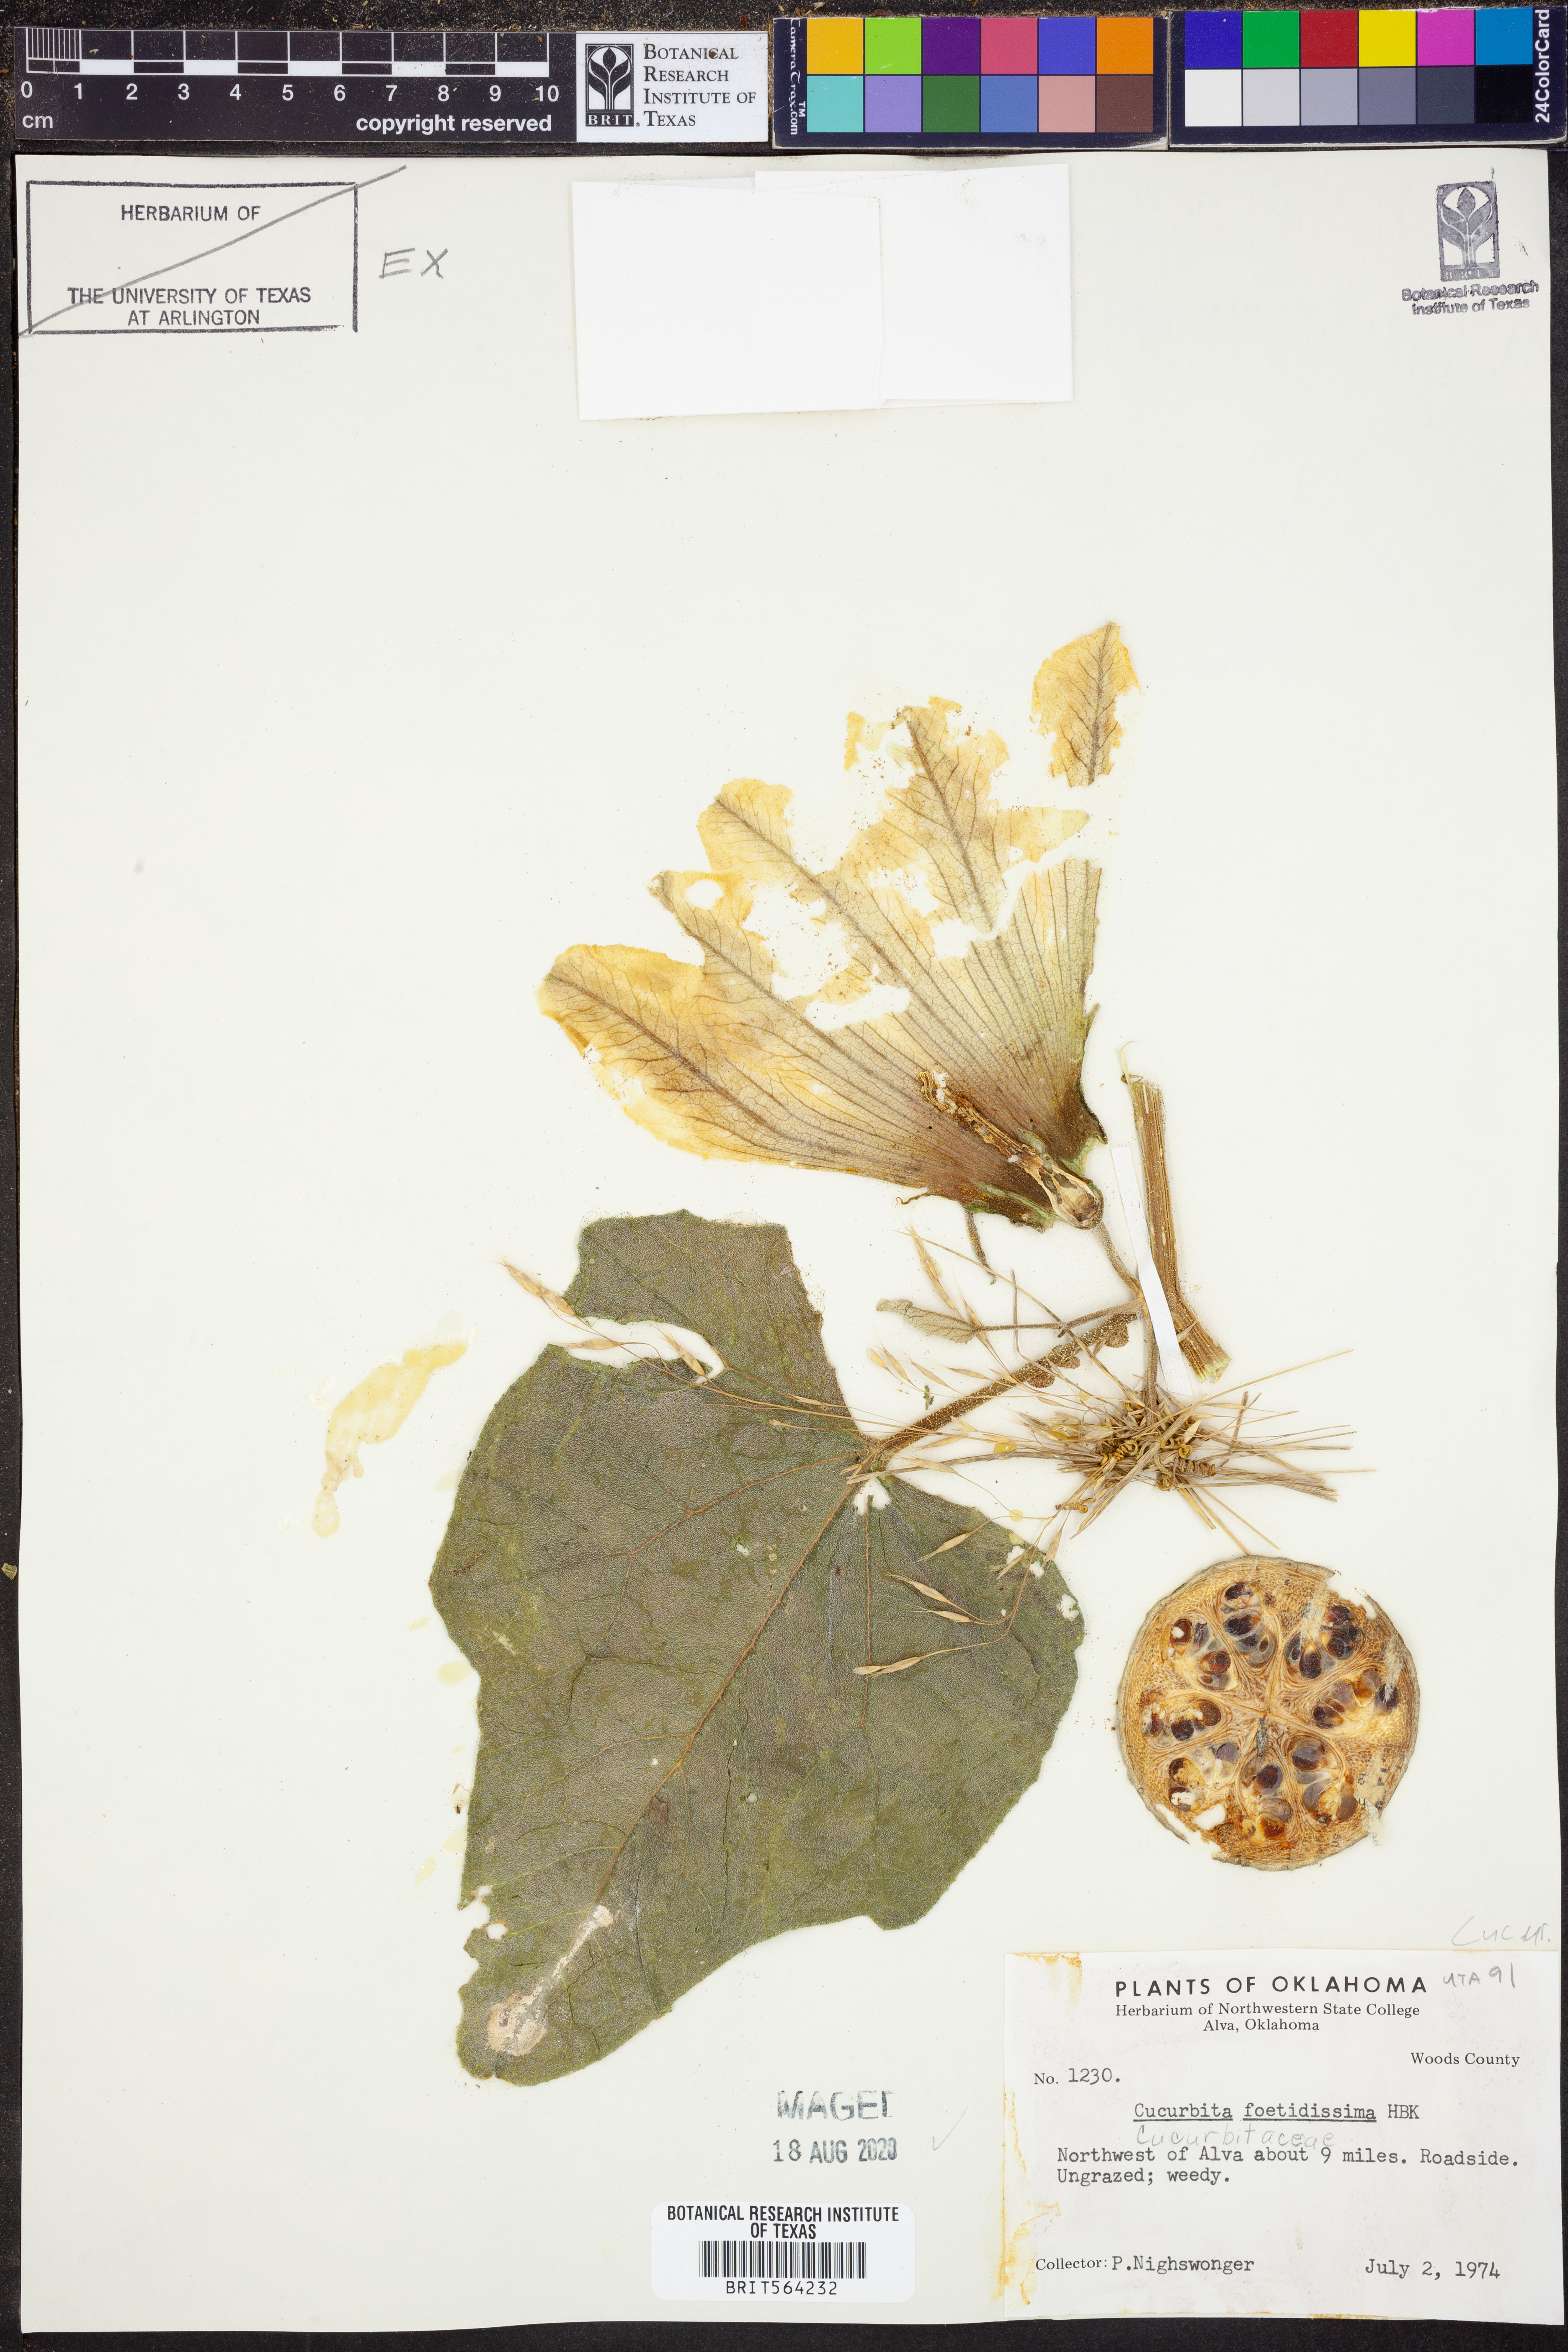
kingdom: Plantae
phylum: Tracheophyta
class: Magnoliopsida
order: Cucurbitales
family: Cucurbitaceae
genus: Cucurbita
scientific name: Cucurbita foetidissima
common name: Buffalo gourd
